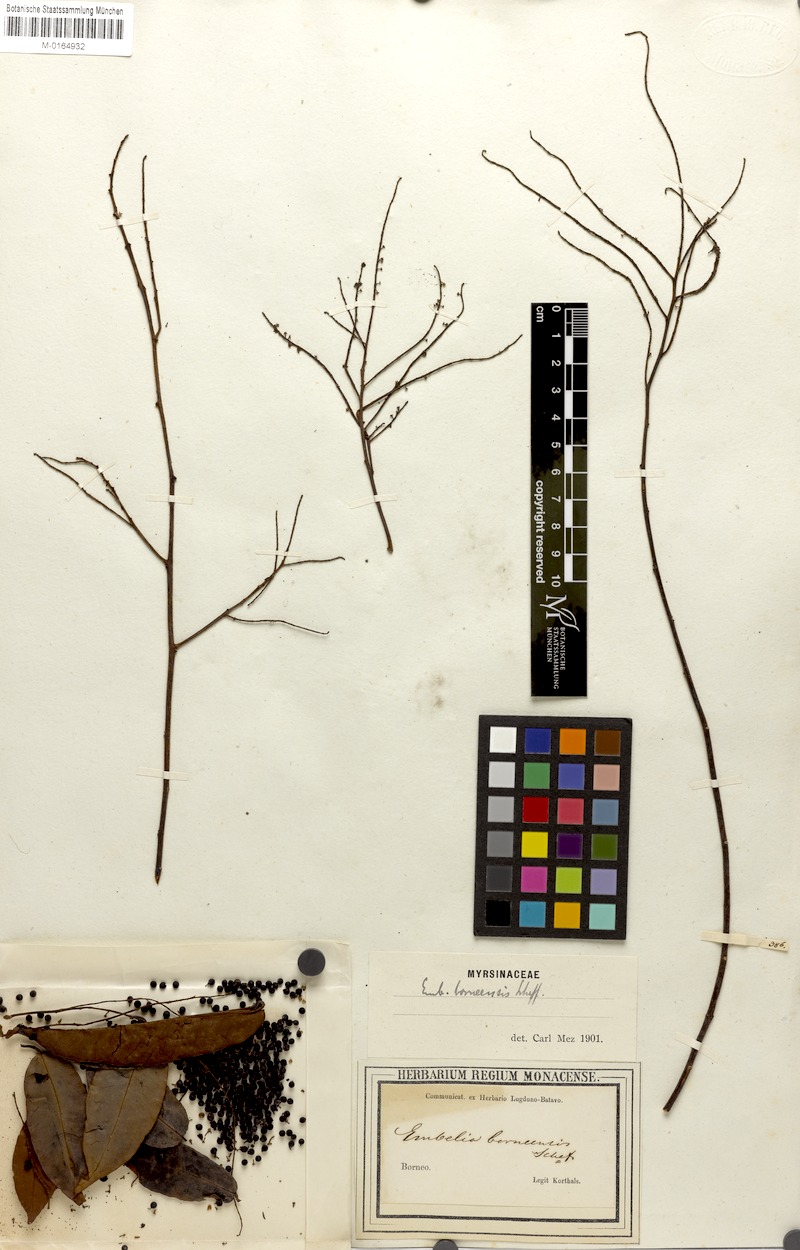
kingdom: Plantae
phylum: Tracheophyta
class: Magnoliopsida
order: Ericales
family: Primulaceae
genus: Embelia
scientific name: Embelia borneensis
